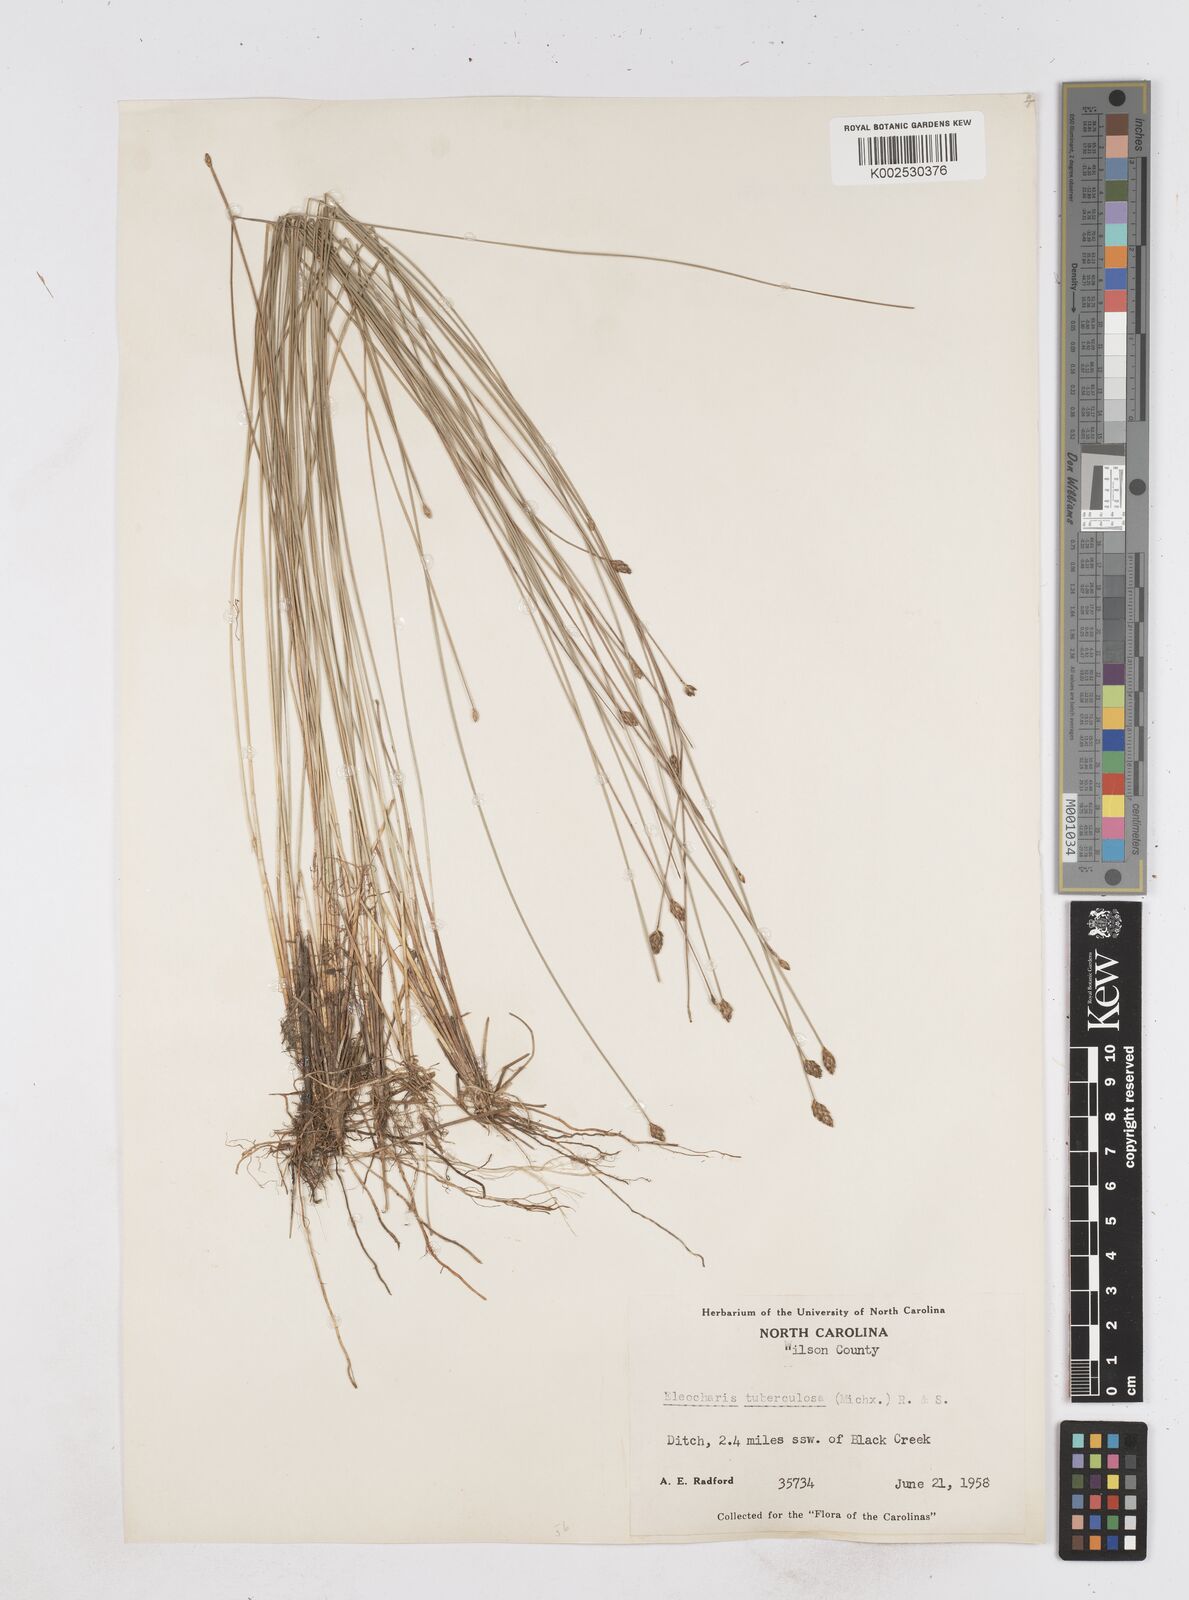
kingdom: Plantae
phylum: Tracheophyta
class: Liliopsida
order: Poales
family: Cyperaceae
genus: Eleocharis
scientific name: Eleocharis tuberculosa
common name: Cone-cup spikerush
